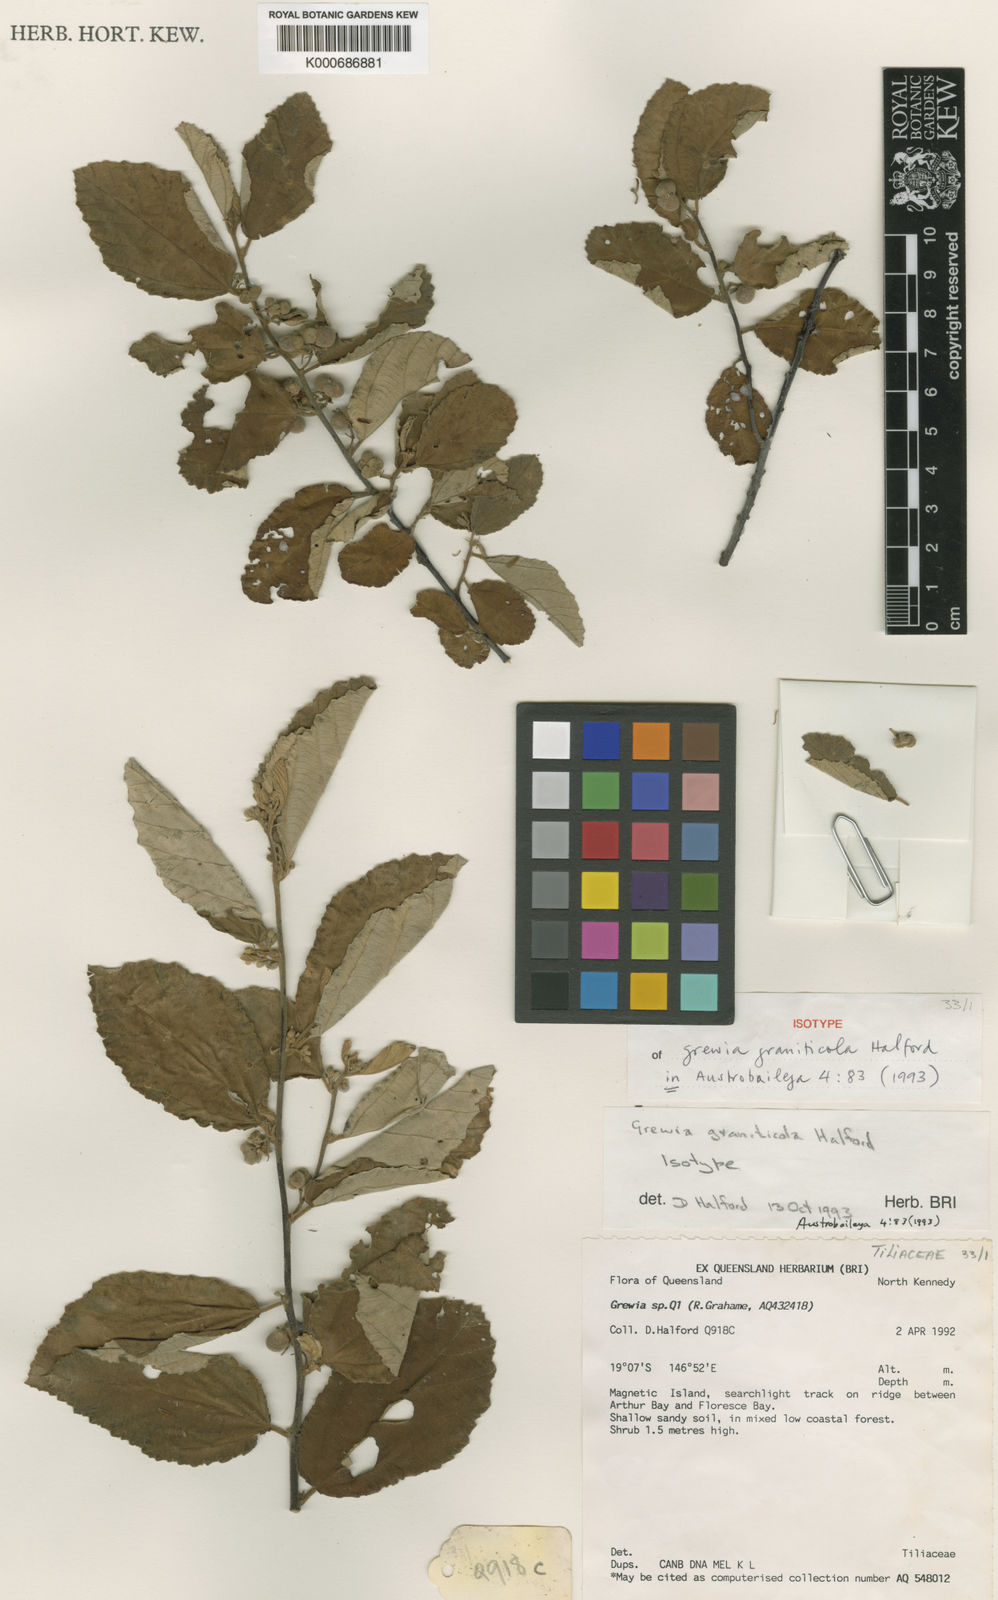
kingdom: Plantae
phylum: Tracheophyta
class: Magnoliopsida
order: Malvales
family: Malvaceae
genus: Grewia
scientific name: Grewia graniticola
